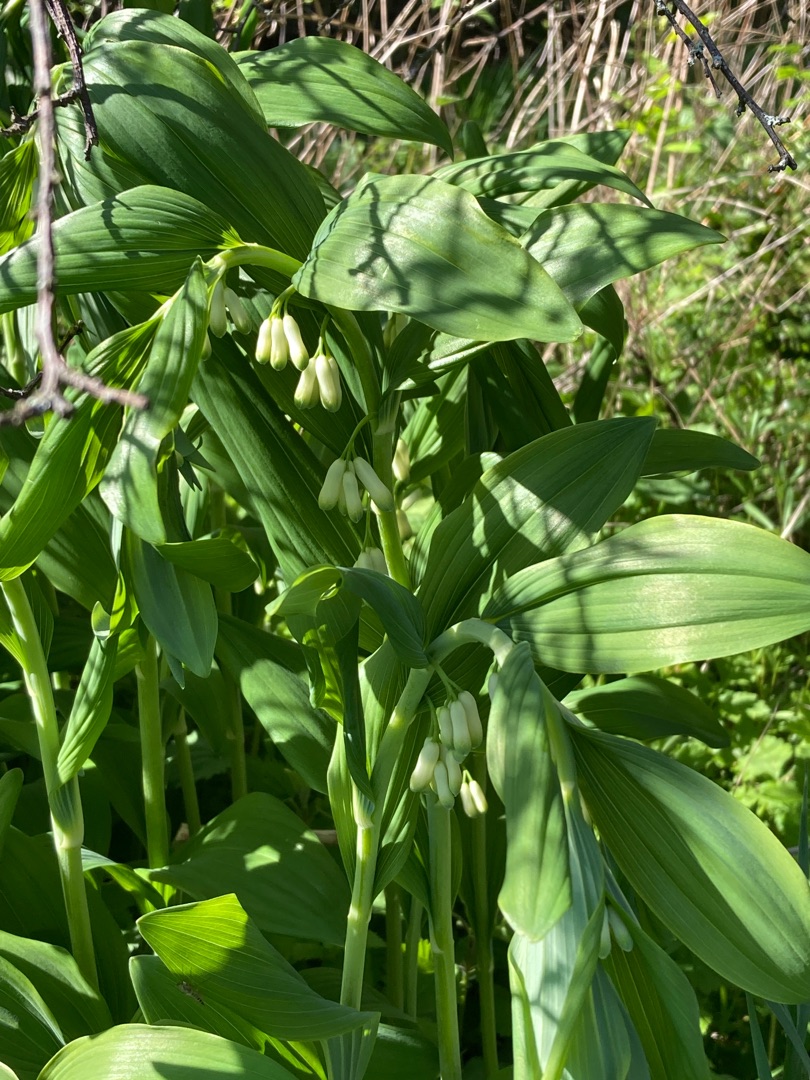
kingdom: Plantae
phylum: Tracheophyta
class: Liliopsida
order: Asparagales
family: Asparagaceae
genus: Polygonatum
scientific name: Polygonatum
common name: Hybrid-konval
